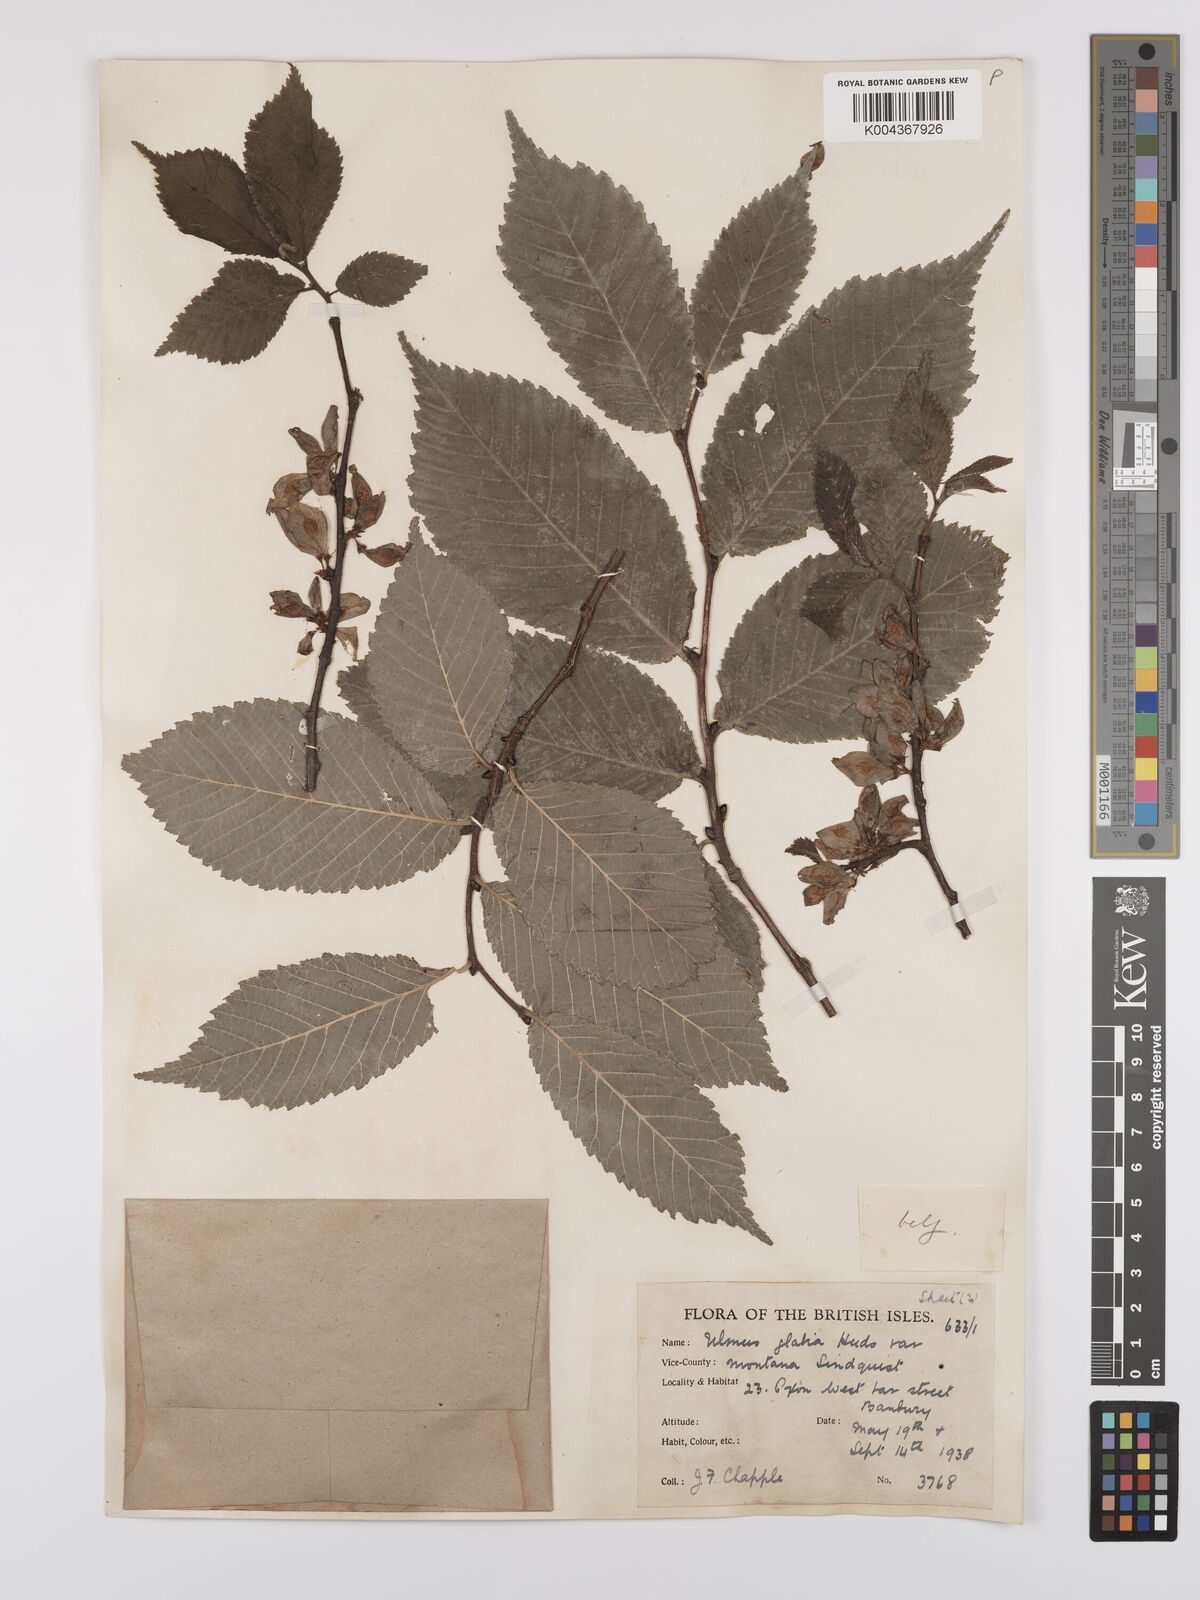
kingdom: Plantae
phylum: Tracheophyta
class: Magnoliopsida
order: Rosales
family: Ulmaceae
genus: Ulmus
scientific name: Ulmus
